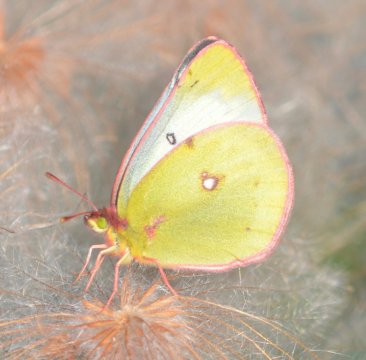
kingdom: Animalia
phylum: Arthropoda
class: Insecta
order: Lepidoptera
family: Pieridae
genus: Colias
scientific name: Colias philodice
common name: Clouded Sulphur
